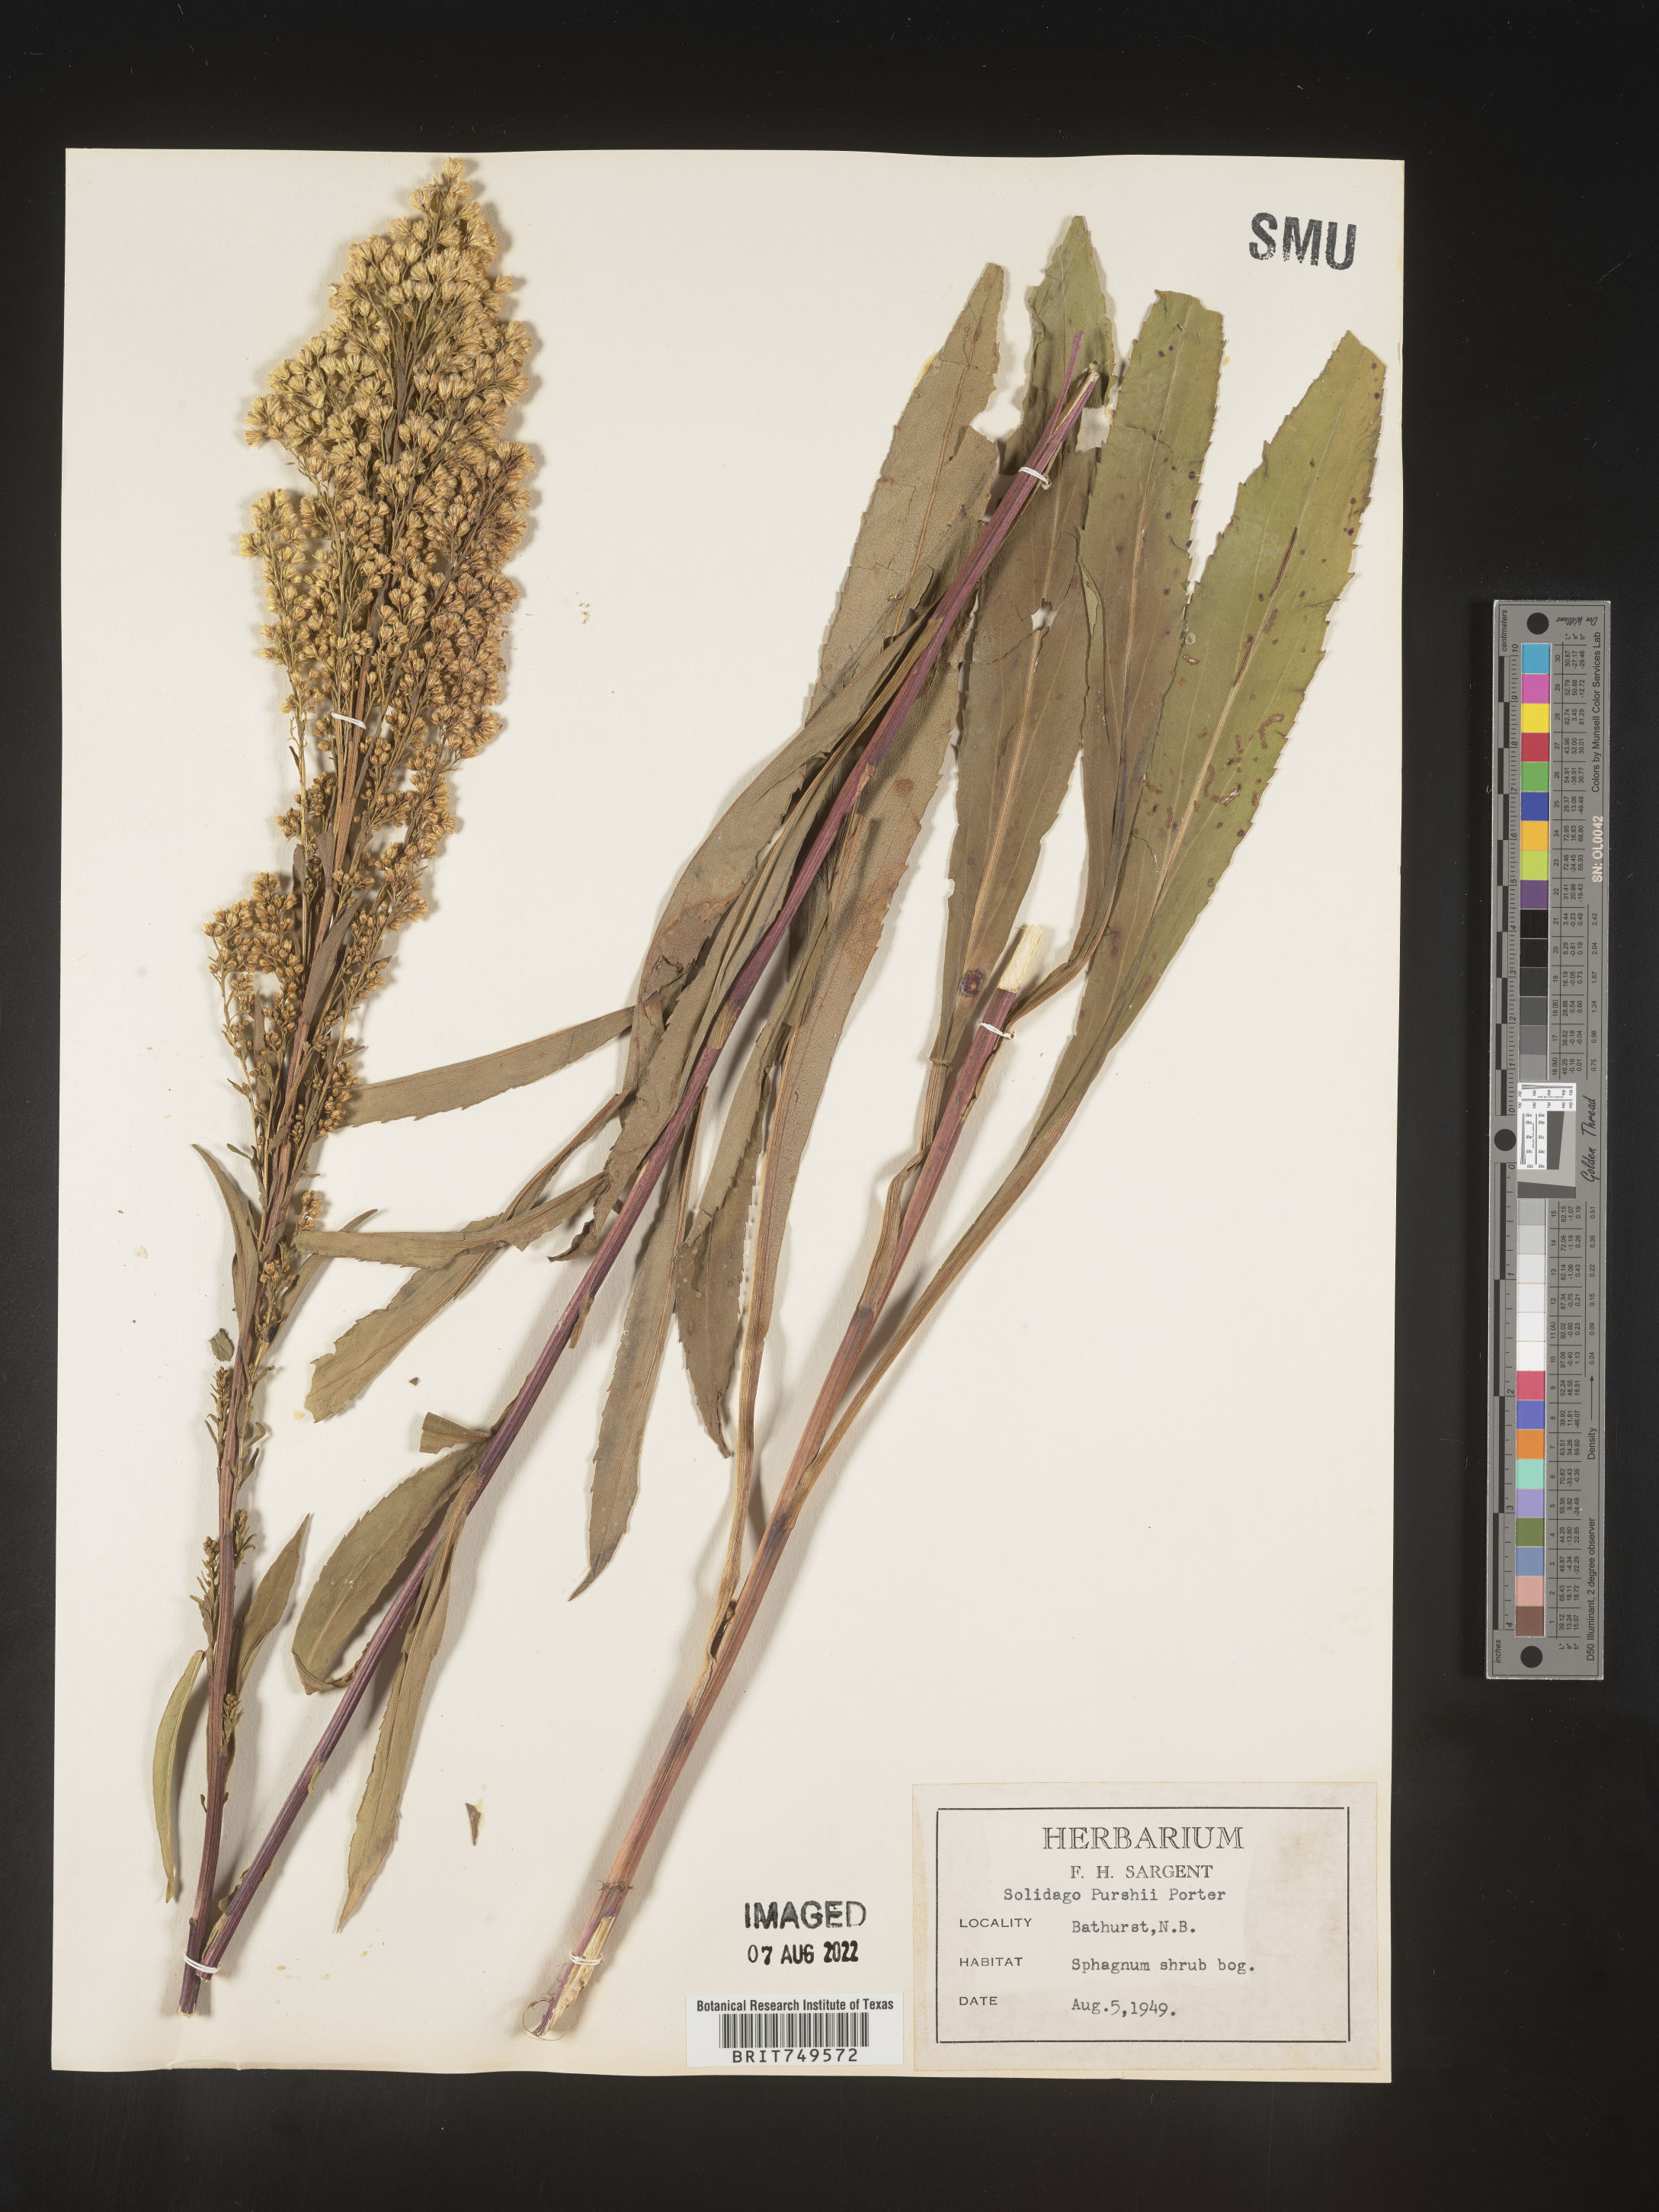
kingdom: Plantae
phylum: Tracheophyta
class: Magnoliopsida
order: Asterales
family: Asteraceae
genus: Solidago
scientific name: Solidago uliginosa
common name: Bog goldenrod
